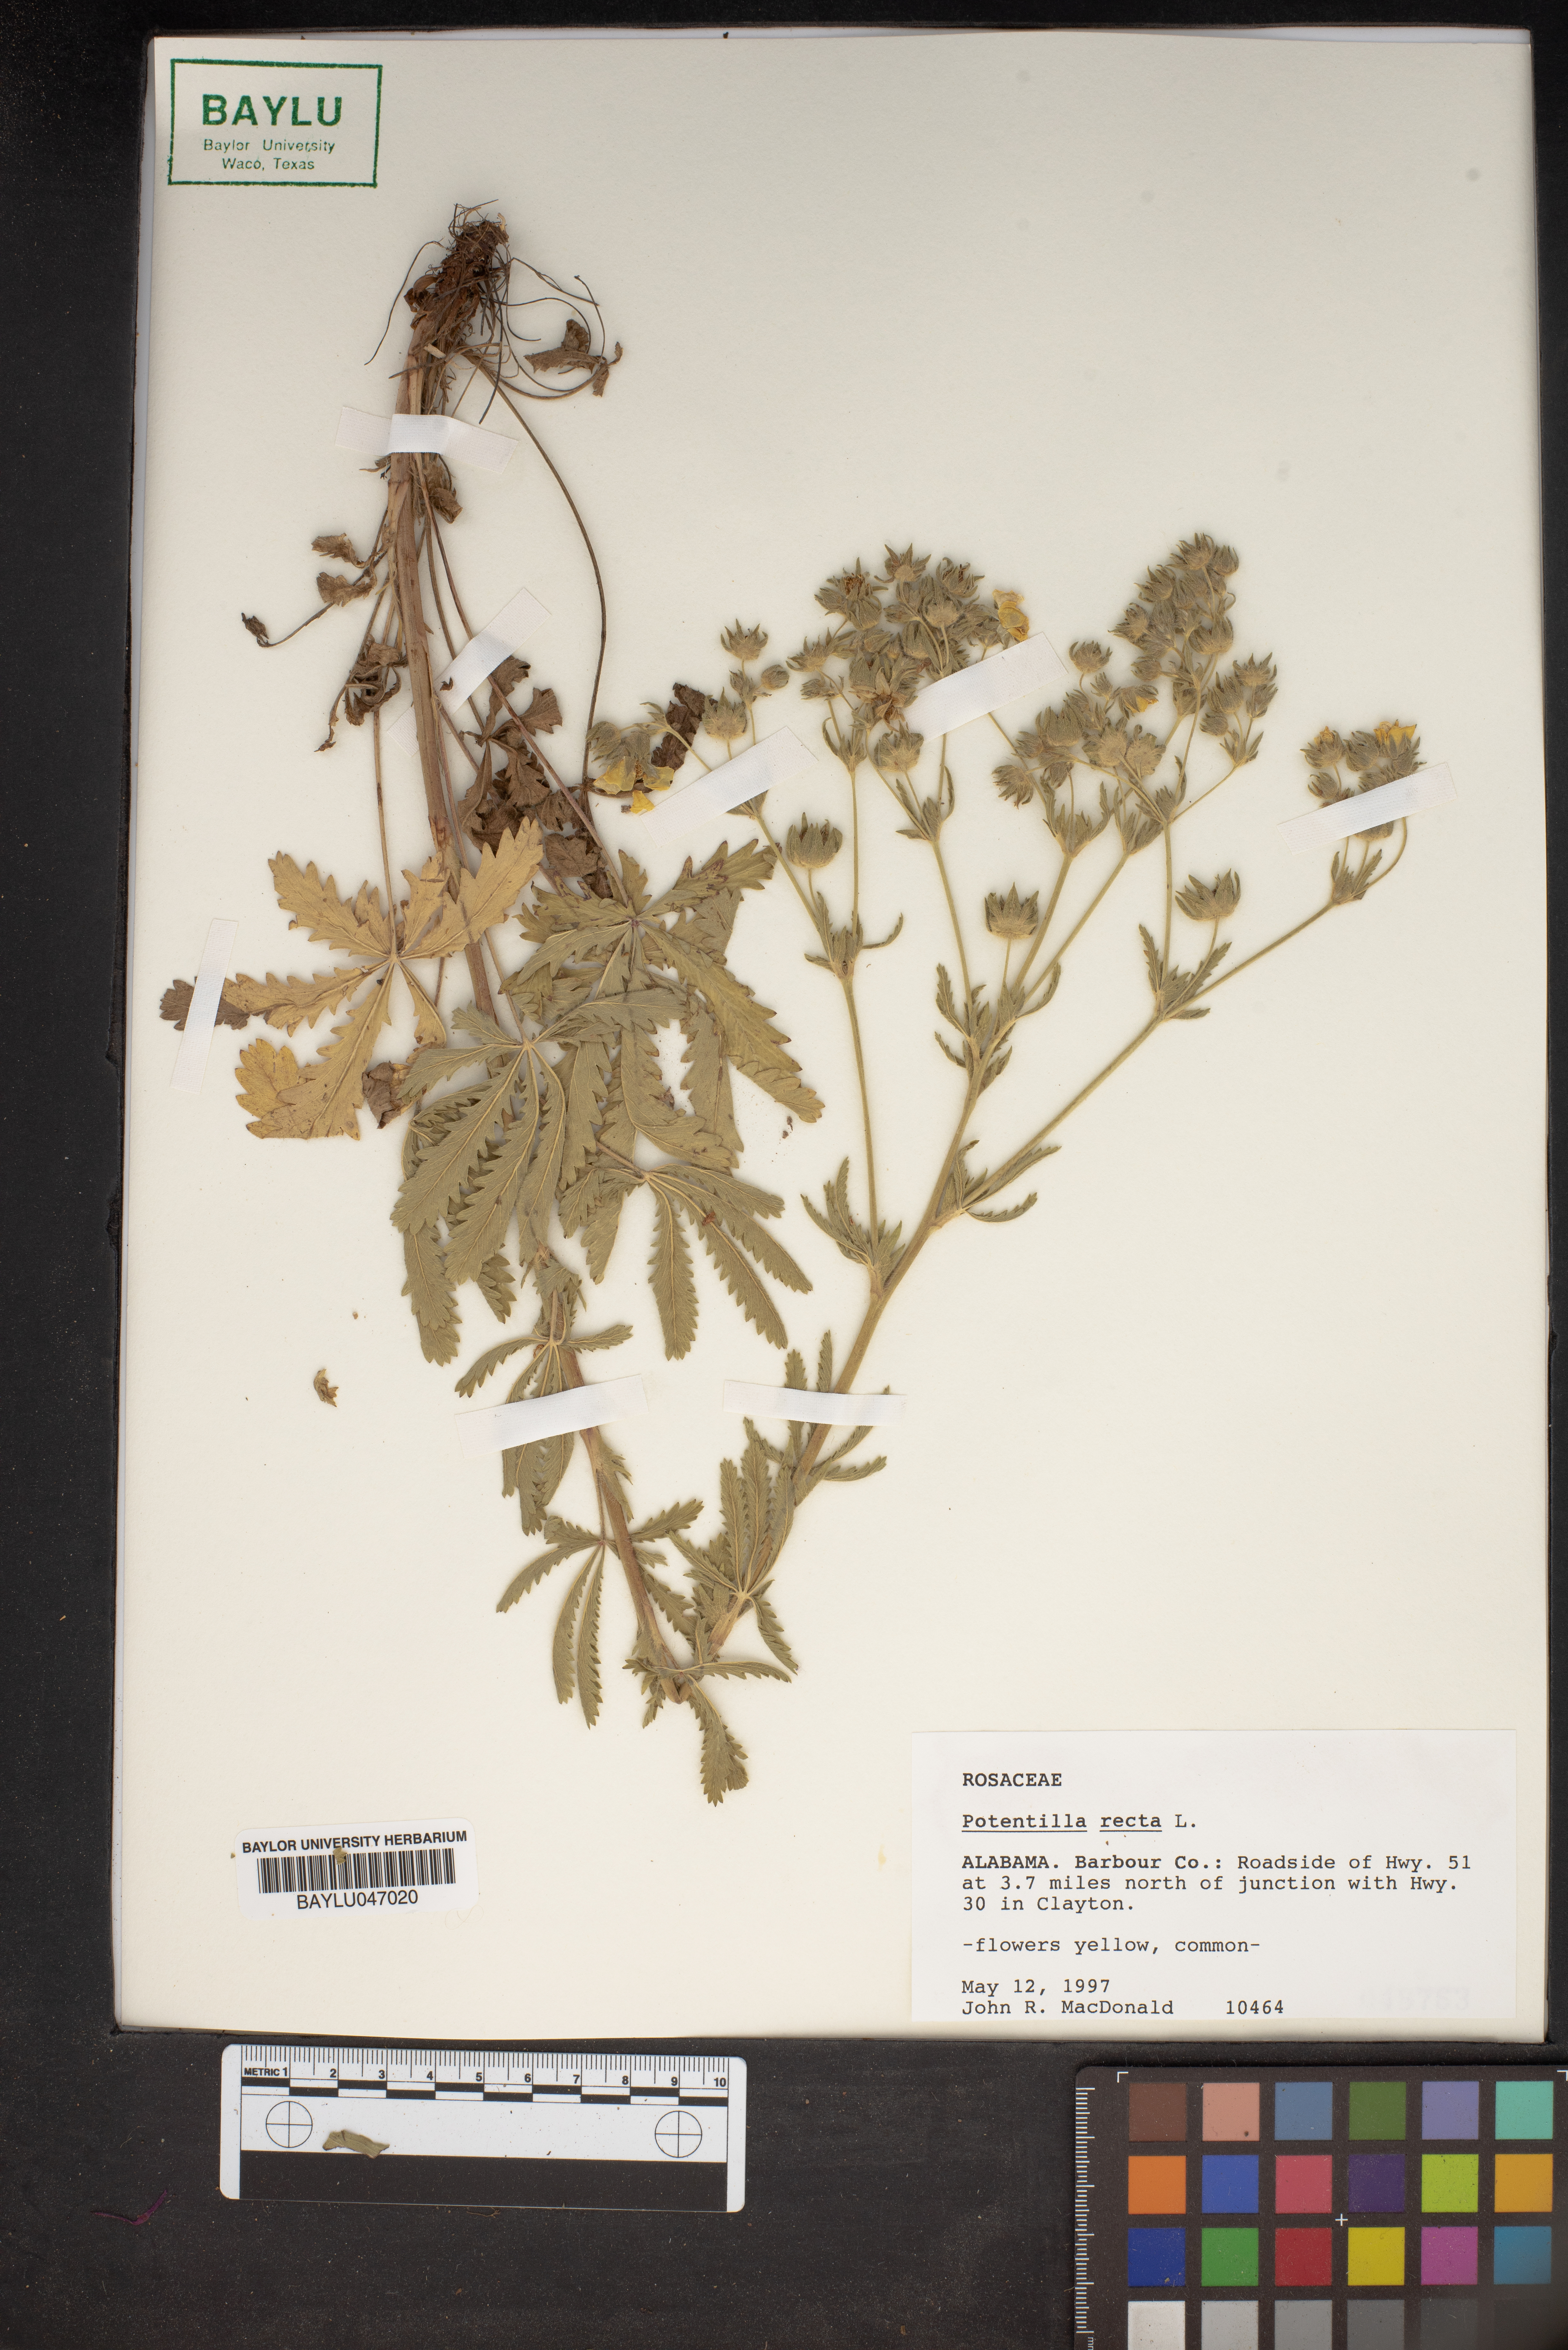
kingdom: Plantae
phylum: Tracheophyta
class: Magnoliopsida
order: Rosales
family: Rosaceae
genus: Potentilla
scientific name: Potentilla recta
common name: Sulphur cinquefoil
